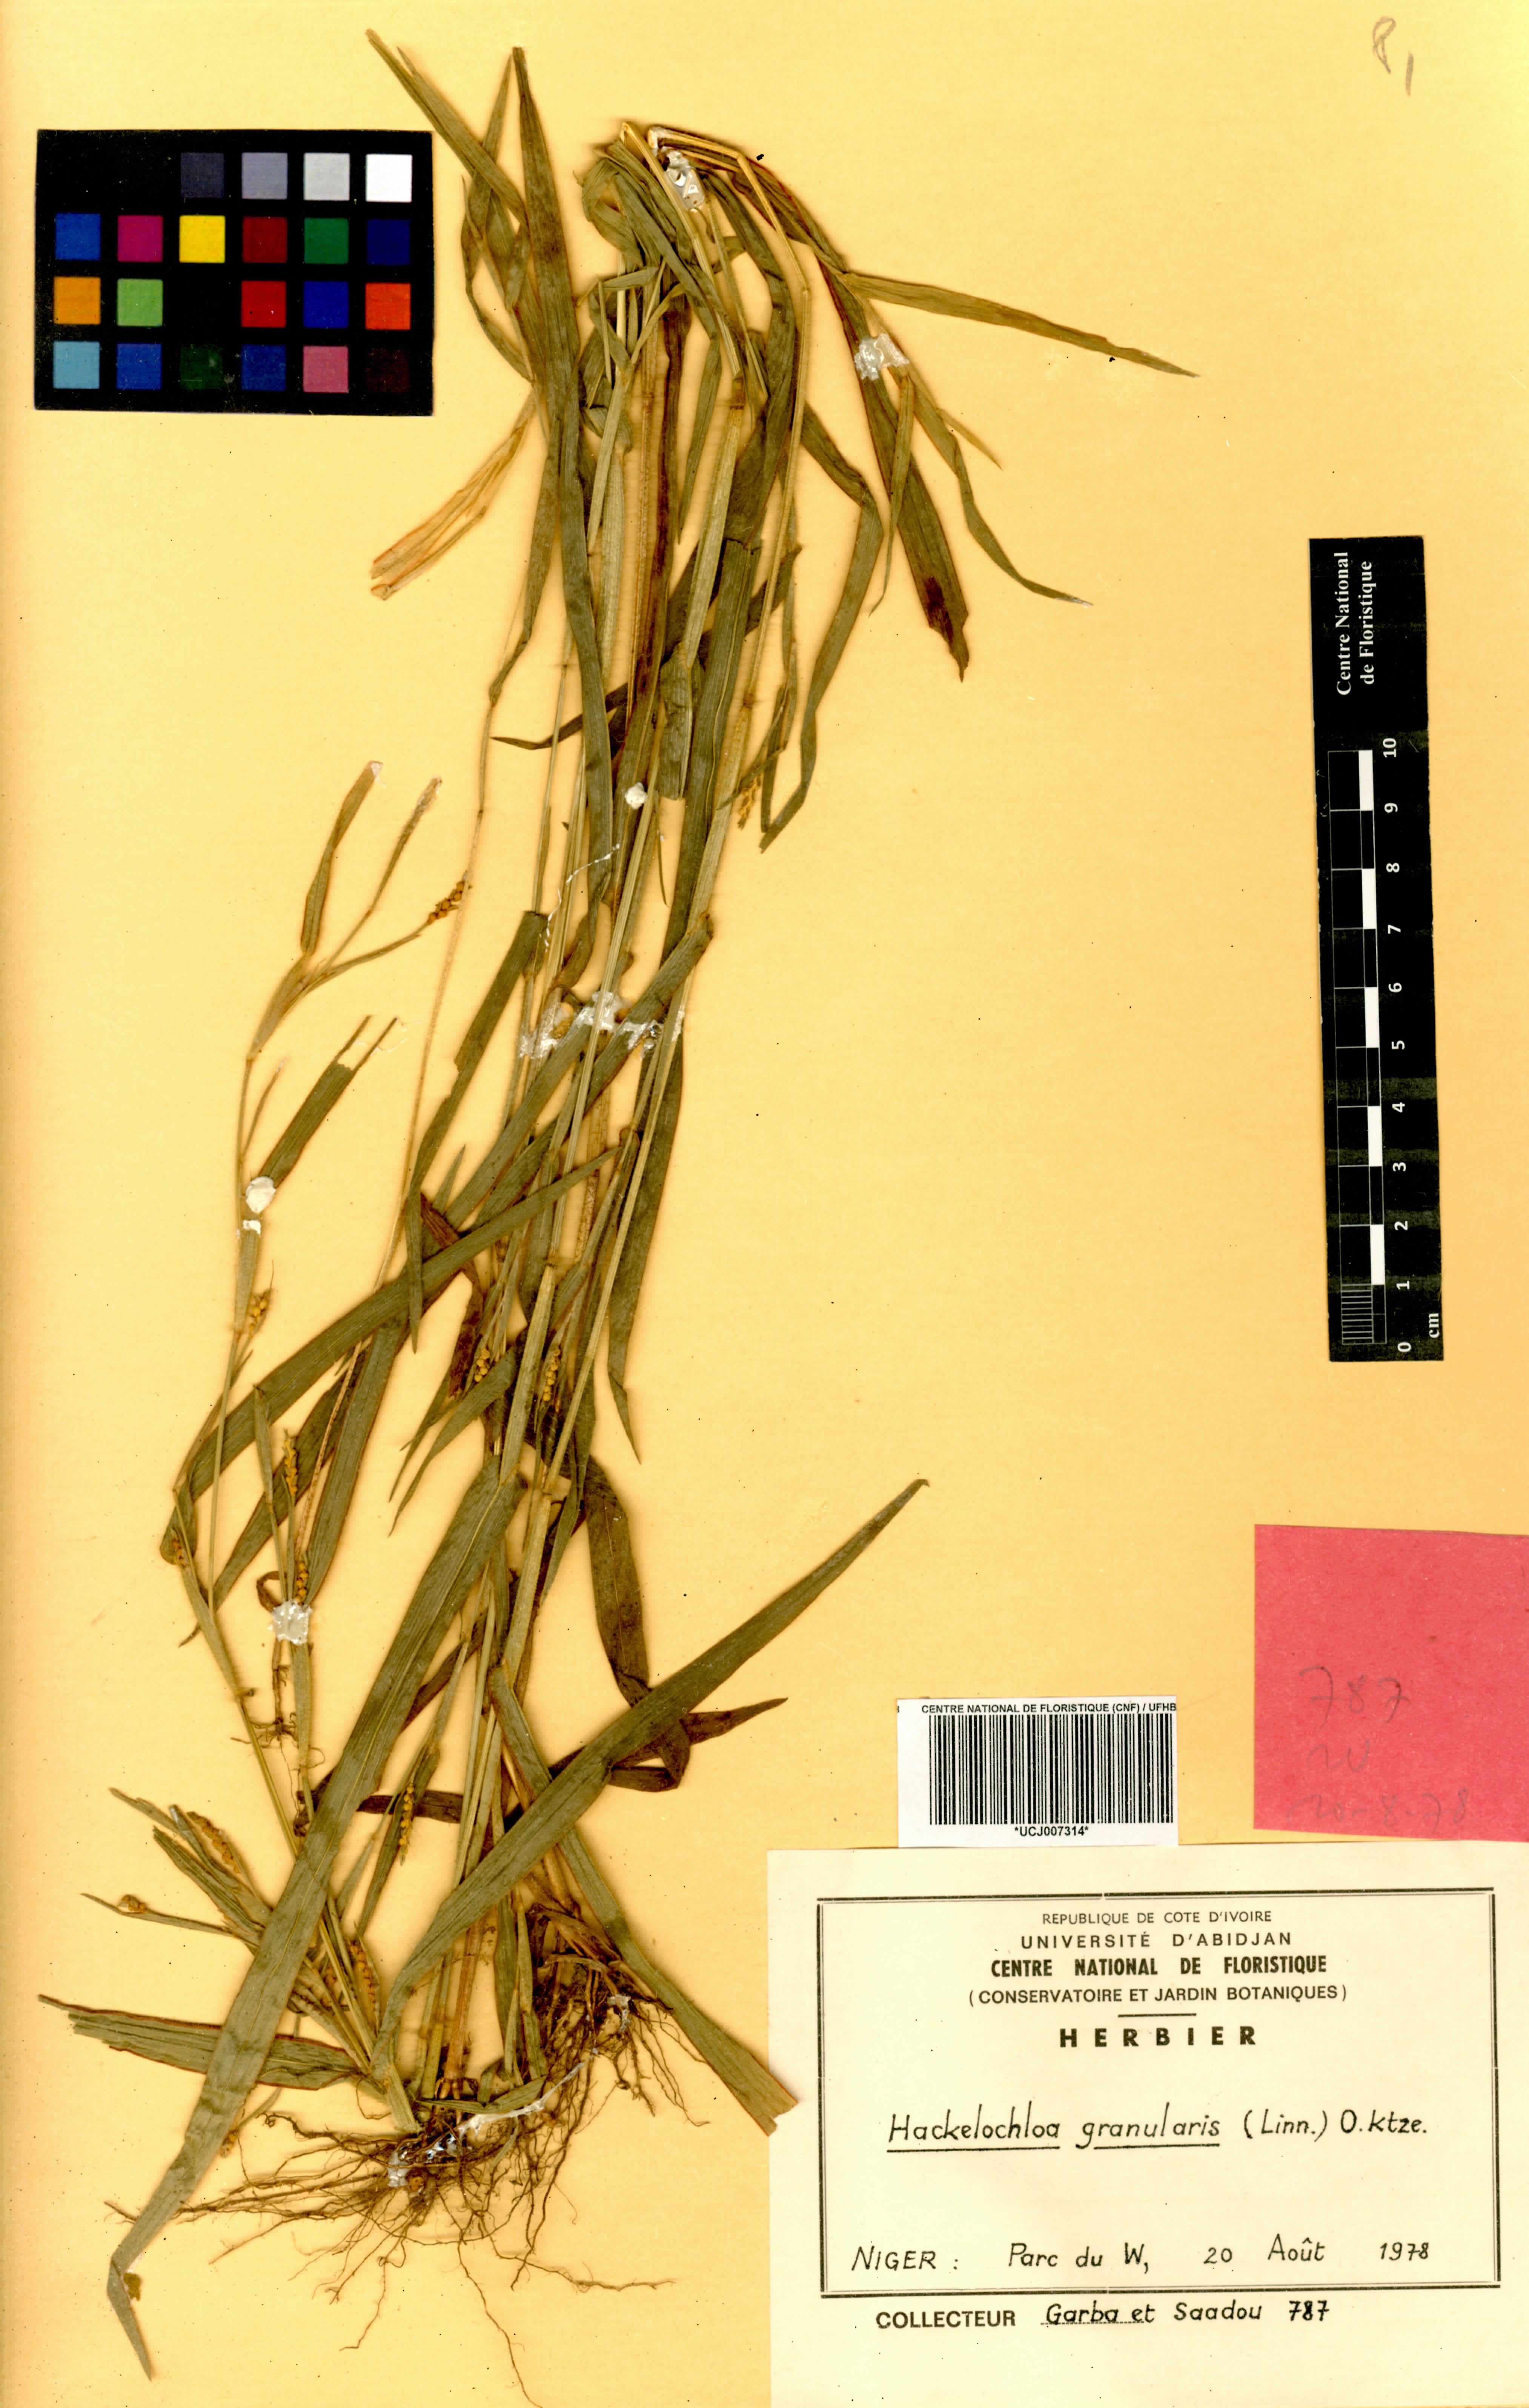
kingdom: Plantae
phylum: Tracheophyta
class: Liliopsida
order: Poales
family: Poaceae
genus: Hackelochloa
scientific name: Hackelochloa granularis
